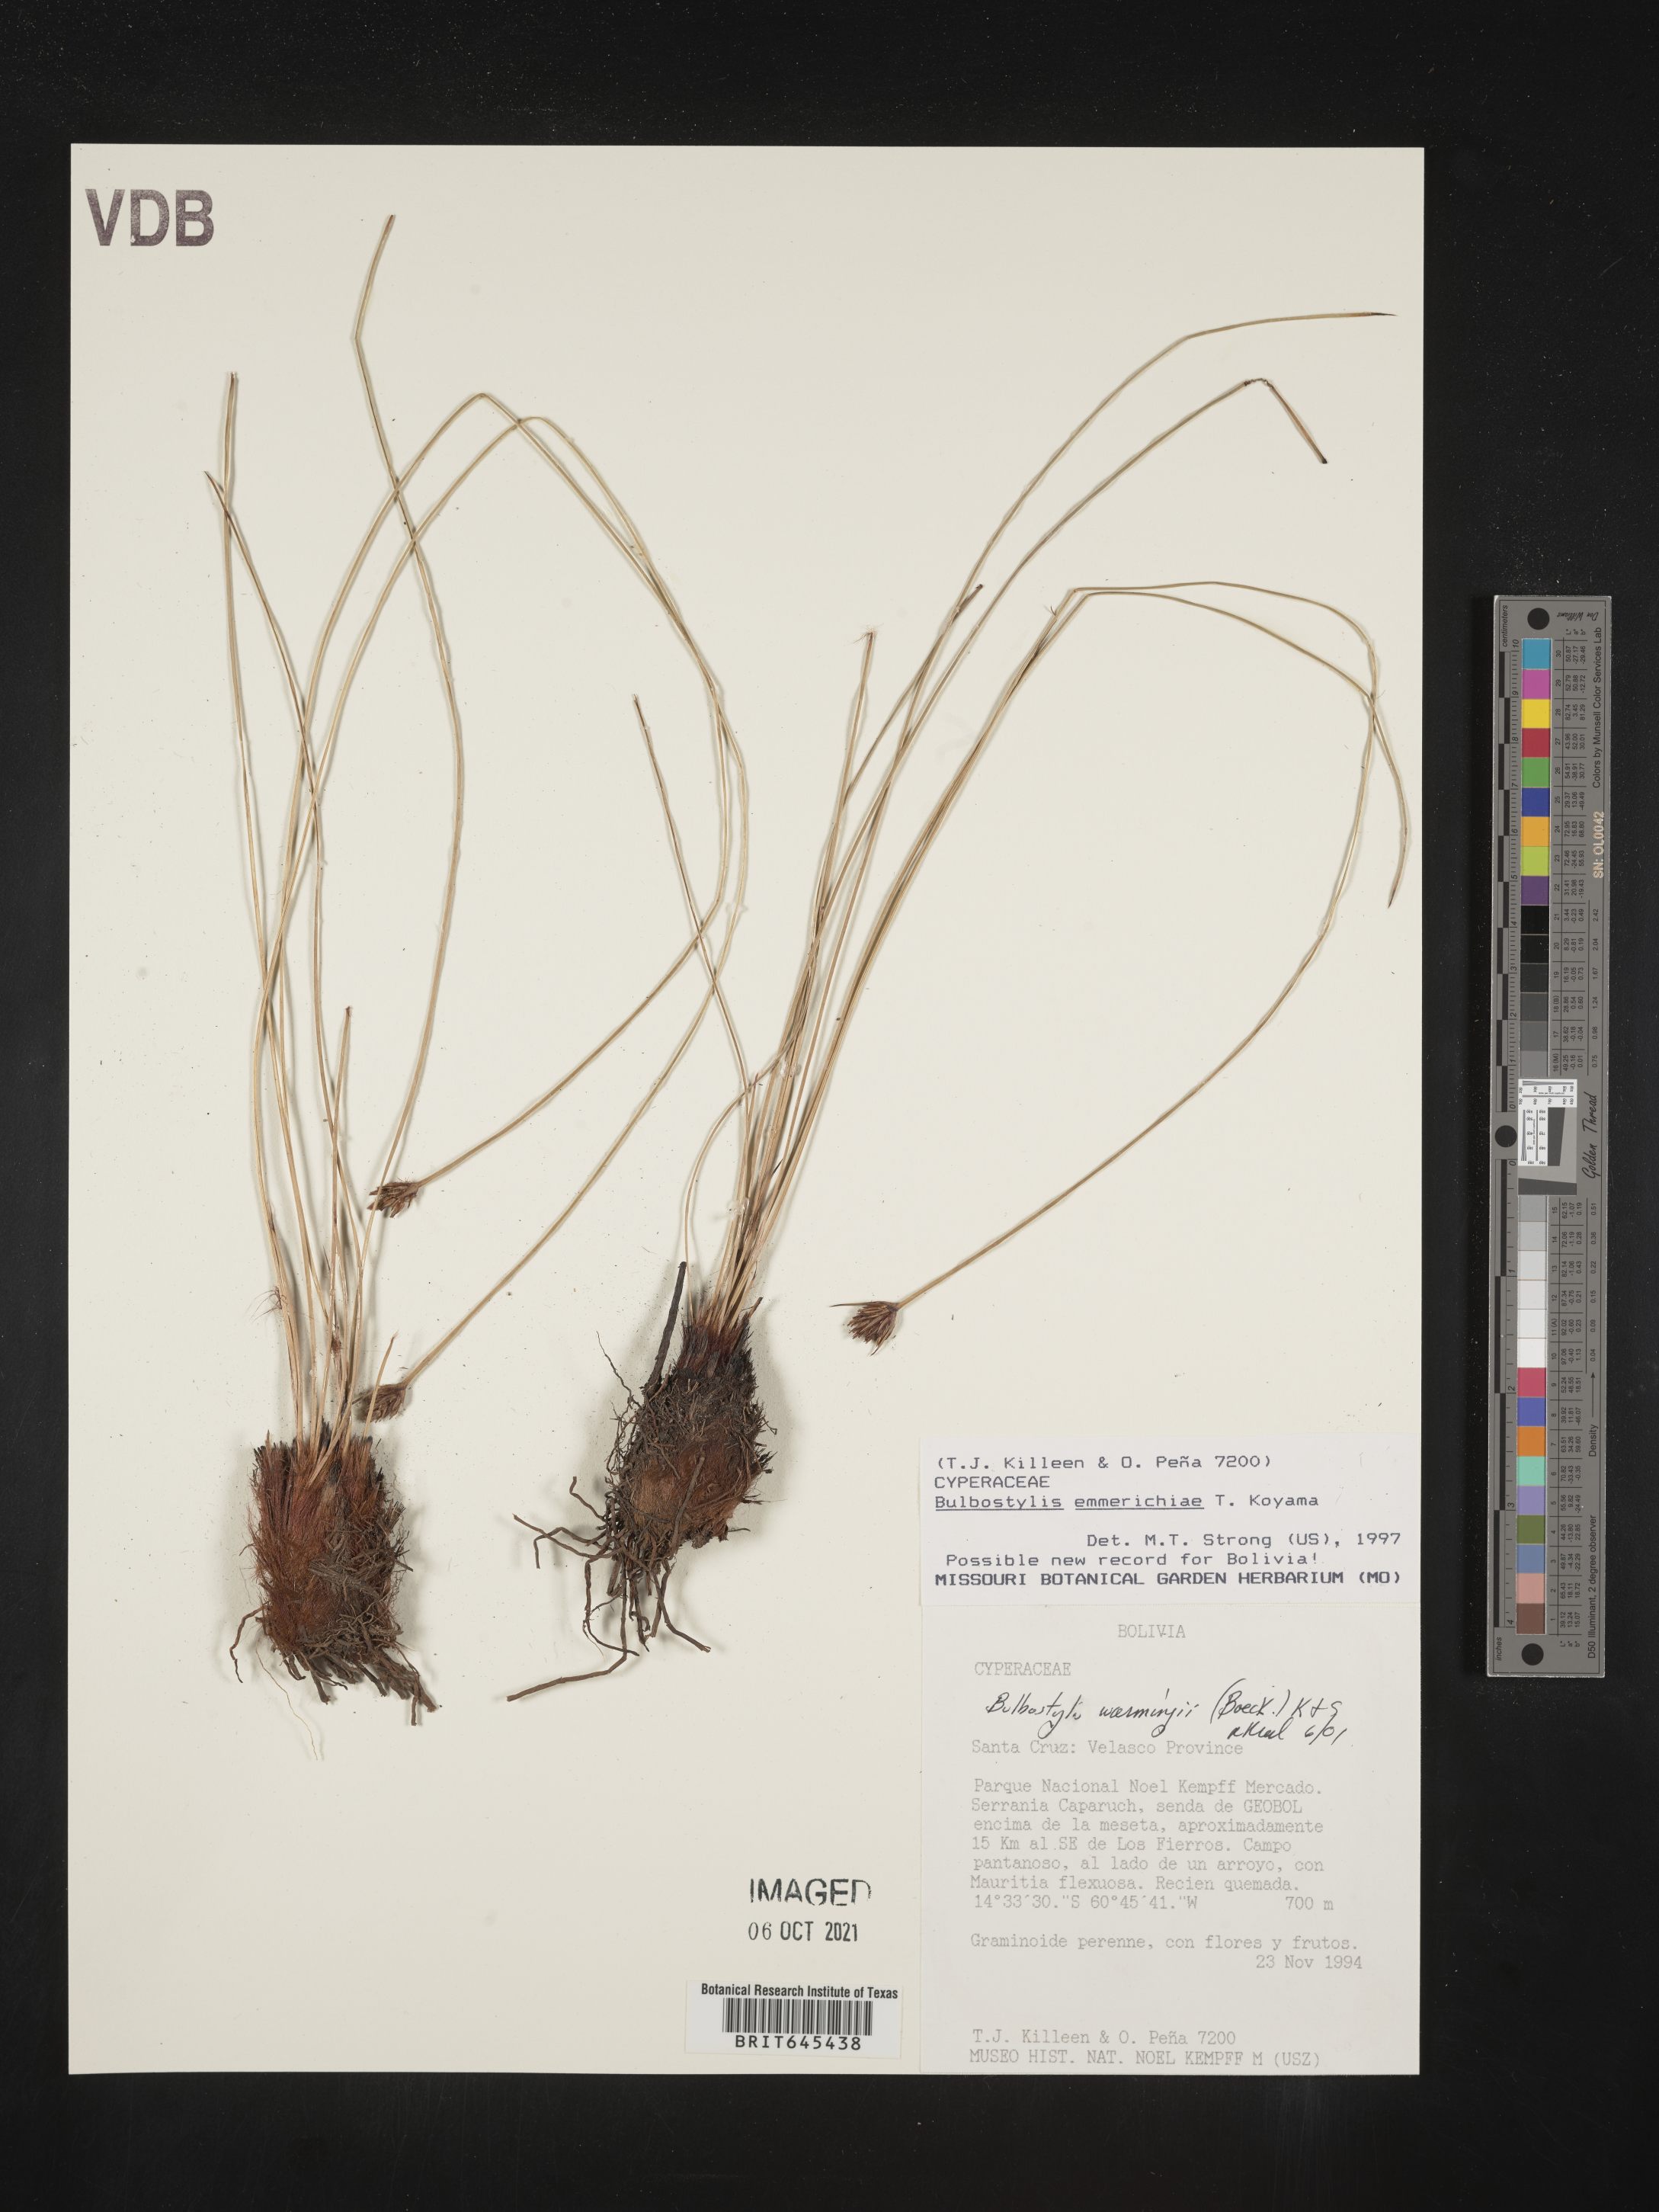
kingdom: Plantae
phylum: Tracheophyta
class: Liliopsida
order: Poales
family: Cyperaceae
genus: Bulbostylis
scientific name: Bulbostylis emmerichiae
